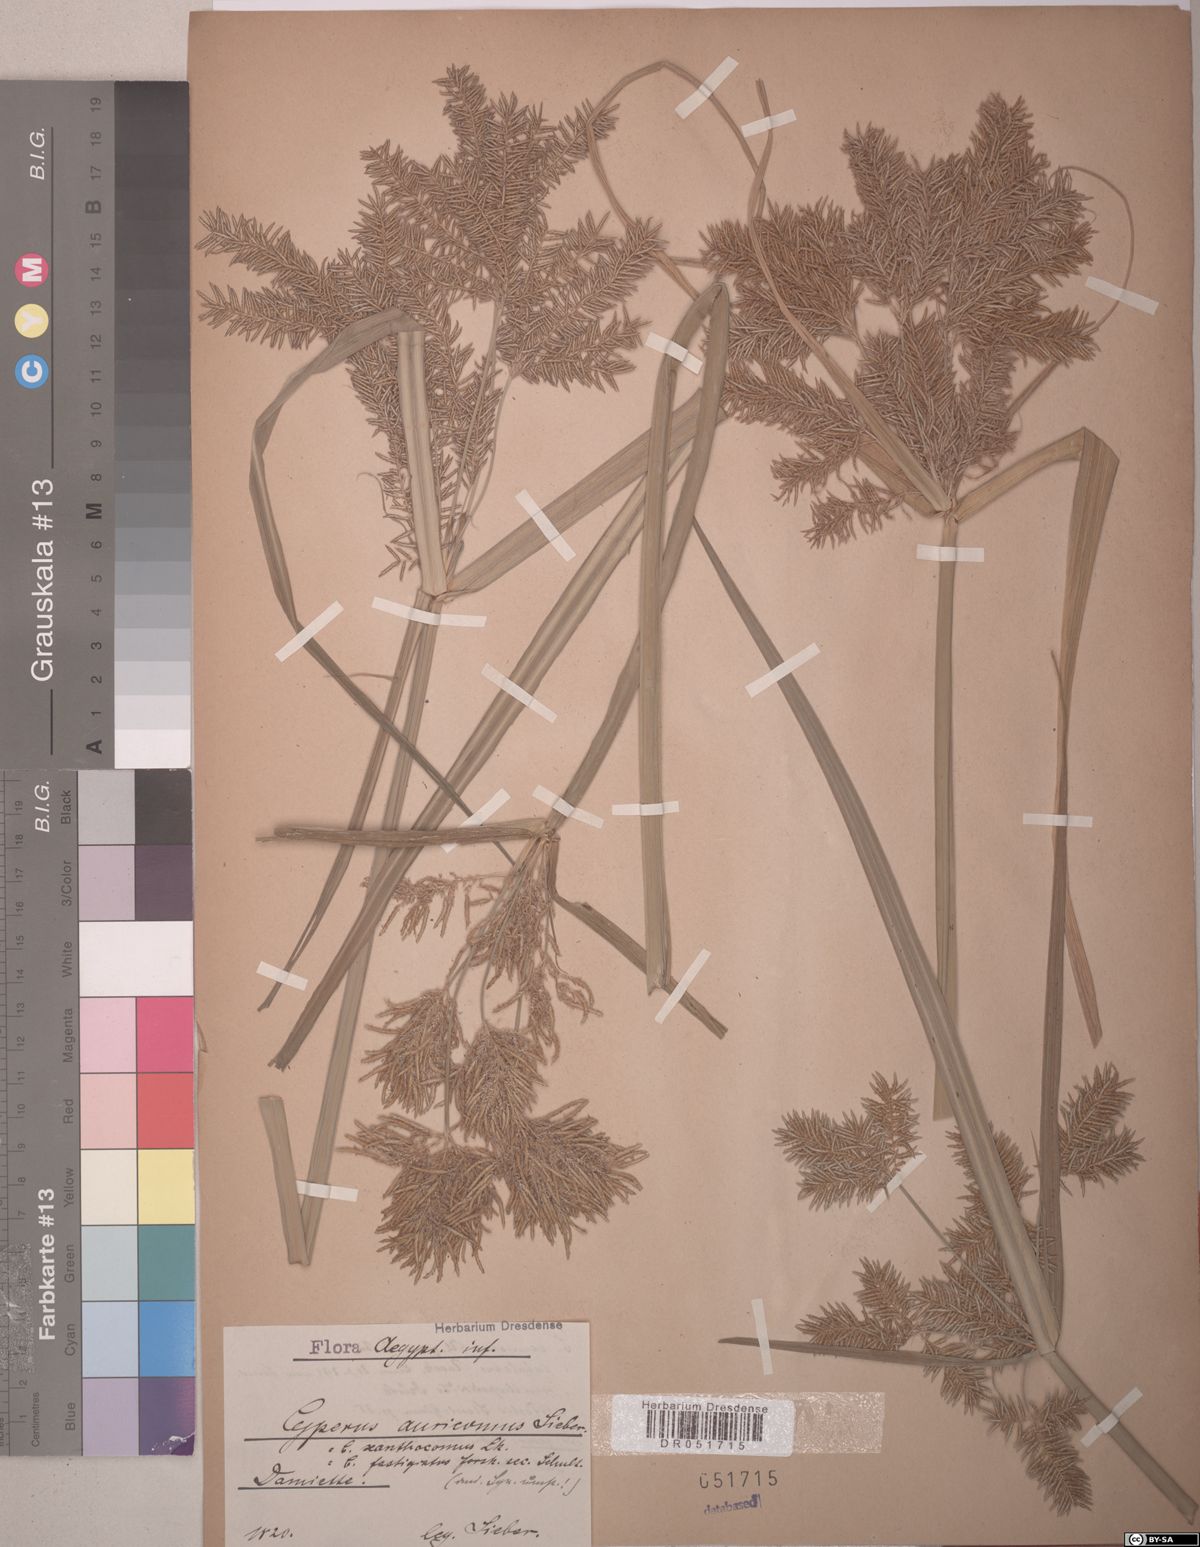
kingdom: Plantae
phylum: Tracheophyta
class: Liliopsida
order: Poales
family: Cyperaceae
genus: Cyperus
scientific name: Cyperus digitatus
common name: Finger flatsedge
